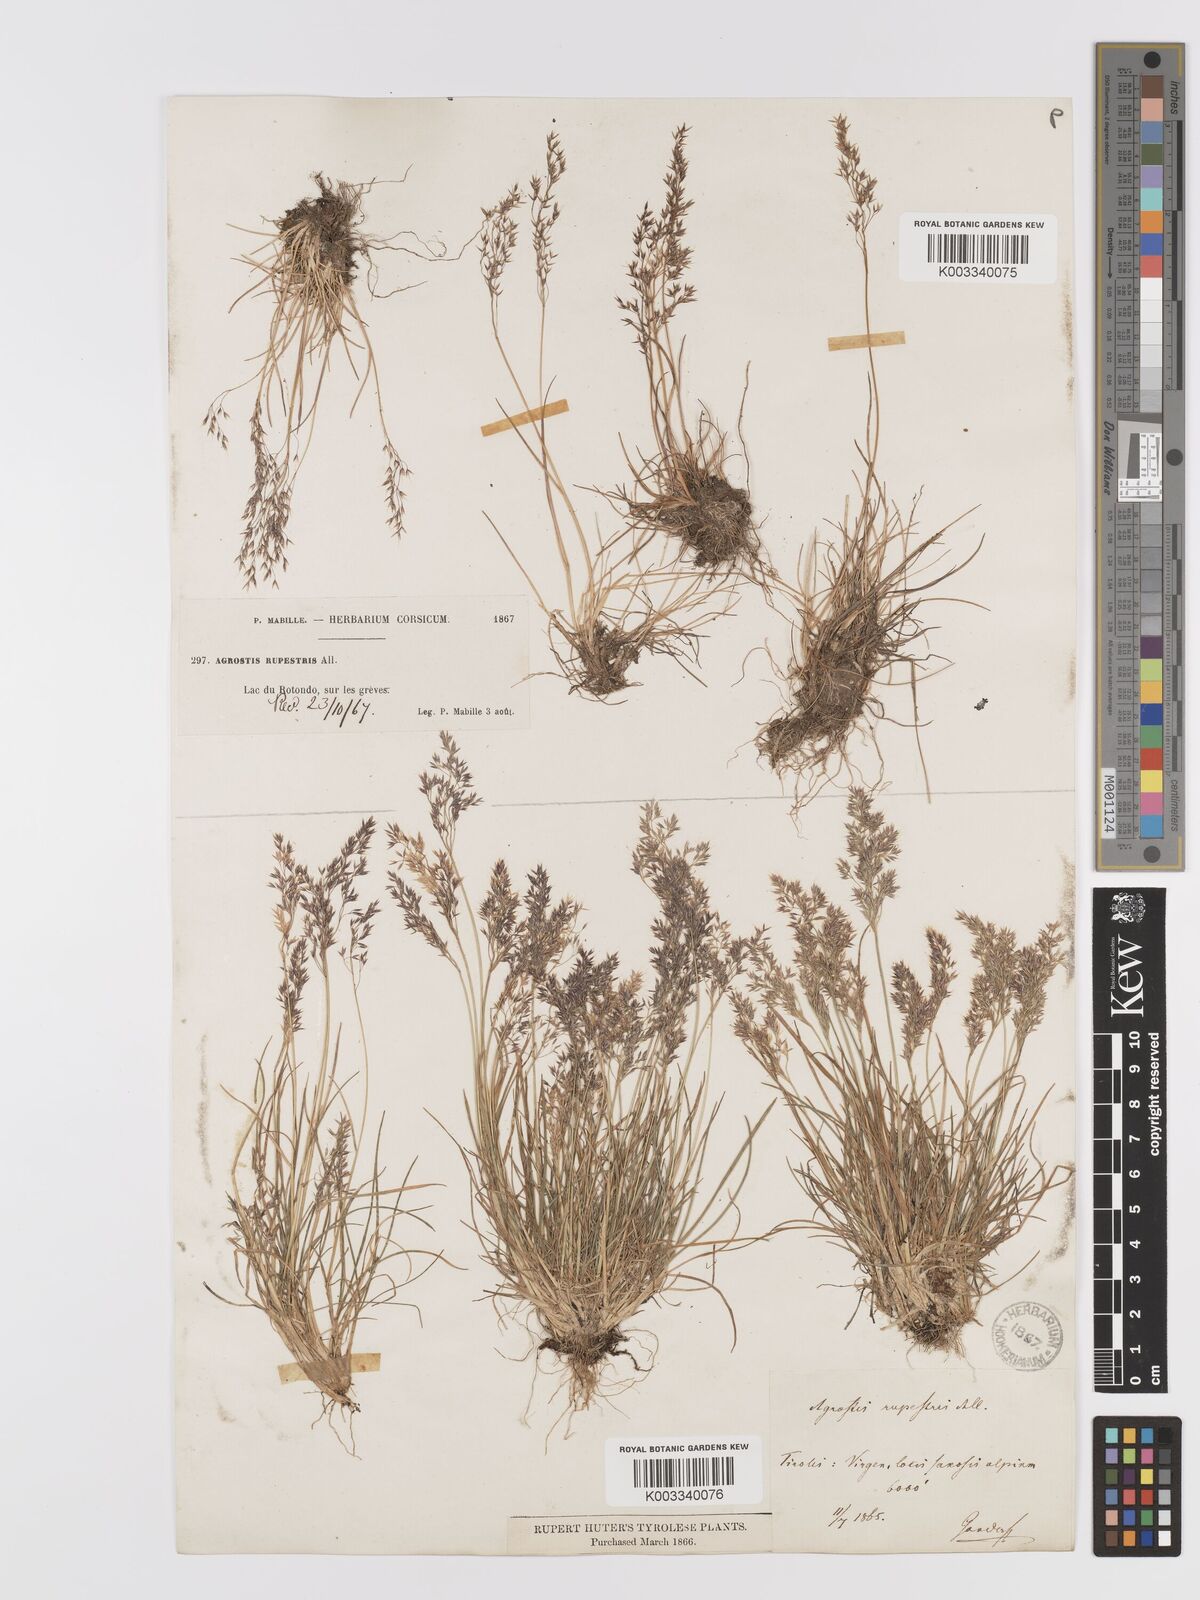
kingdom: Plantae
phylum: Tracheophyta
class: Liliopsida
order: Poales
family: Poaceae
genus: Agrostis
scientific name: Agrostis rupestris
